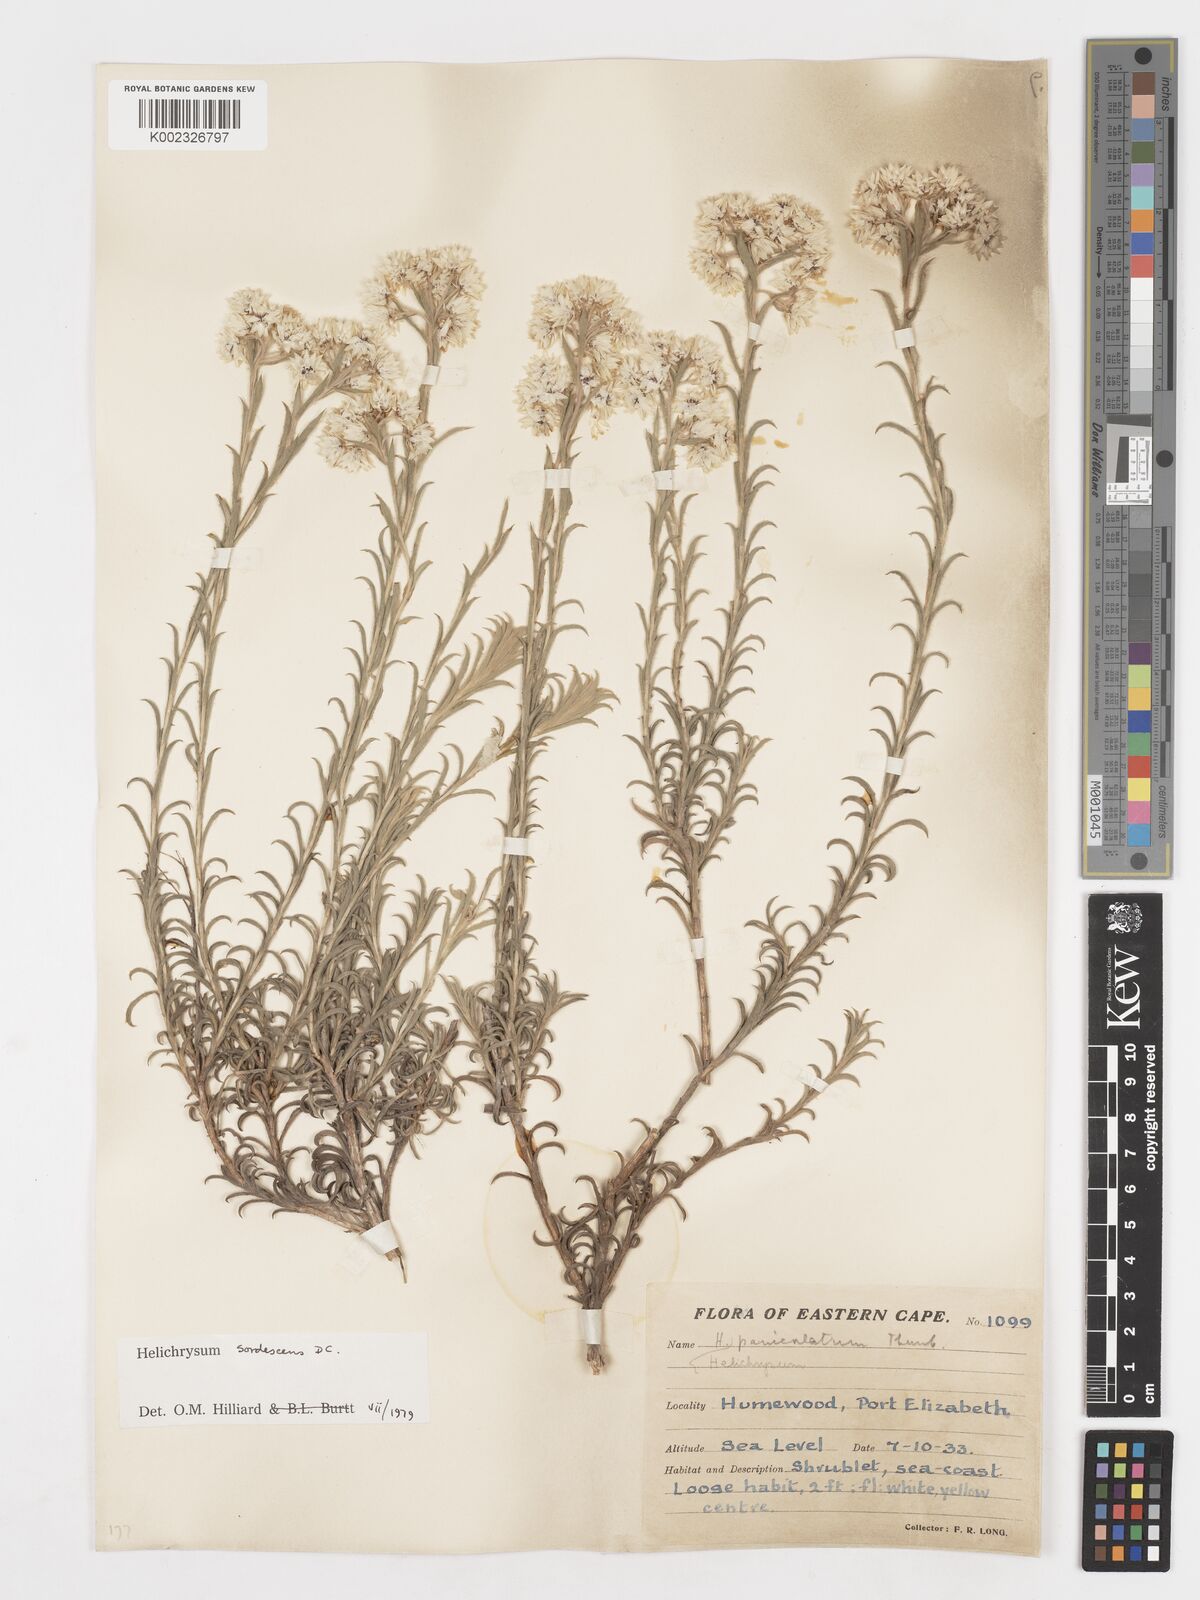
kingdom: Plantae
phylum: Tracheophyta
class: Magnoliopsida
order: Asterales
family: Asteraceae
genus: Achyranthemum
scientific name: Achyranthemum sordescens
